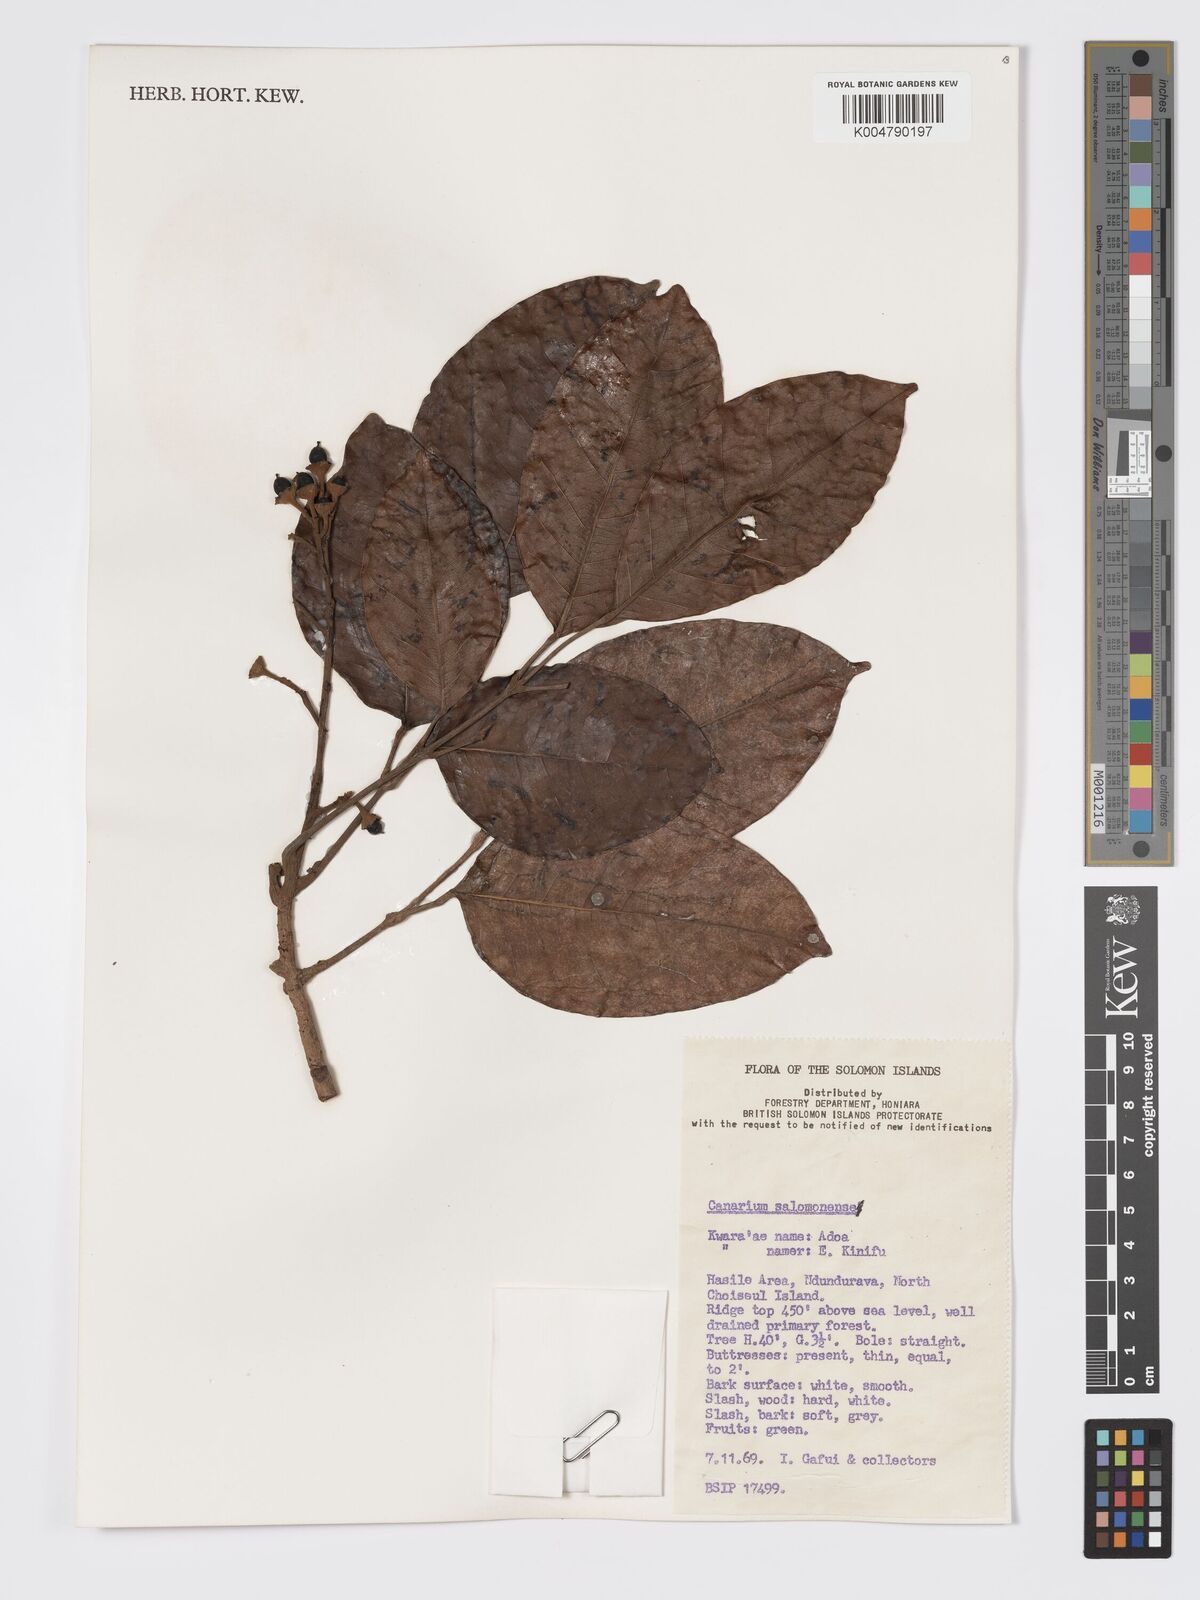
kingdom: Plantae
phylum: Tracheophyta
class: Magnoliopsida
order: Sapindales
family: Burseraceae
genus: Canarium
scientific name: Canarium salomonense
